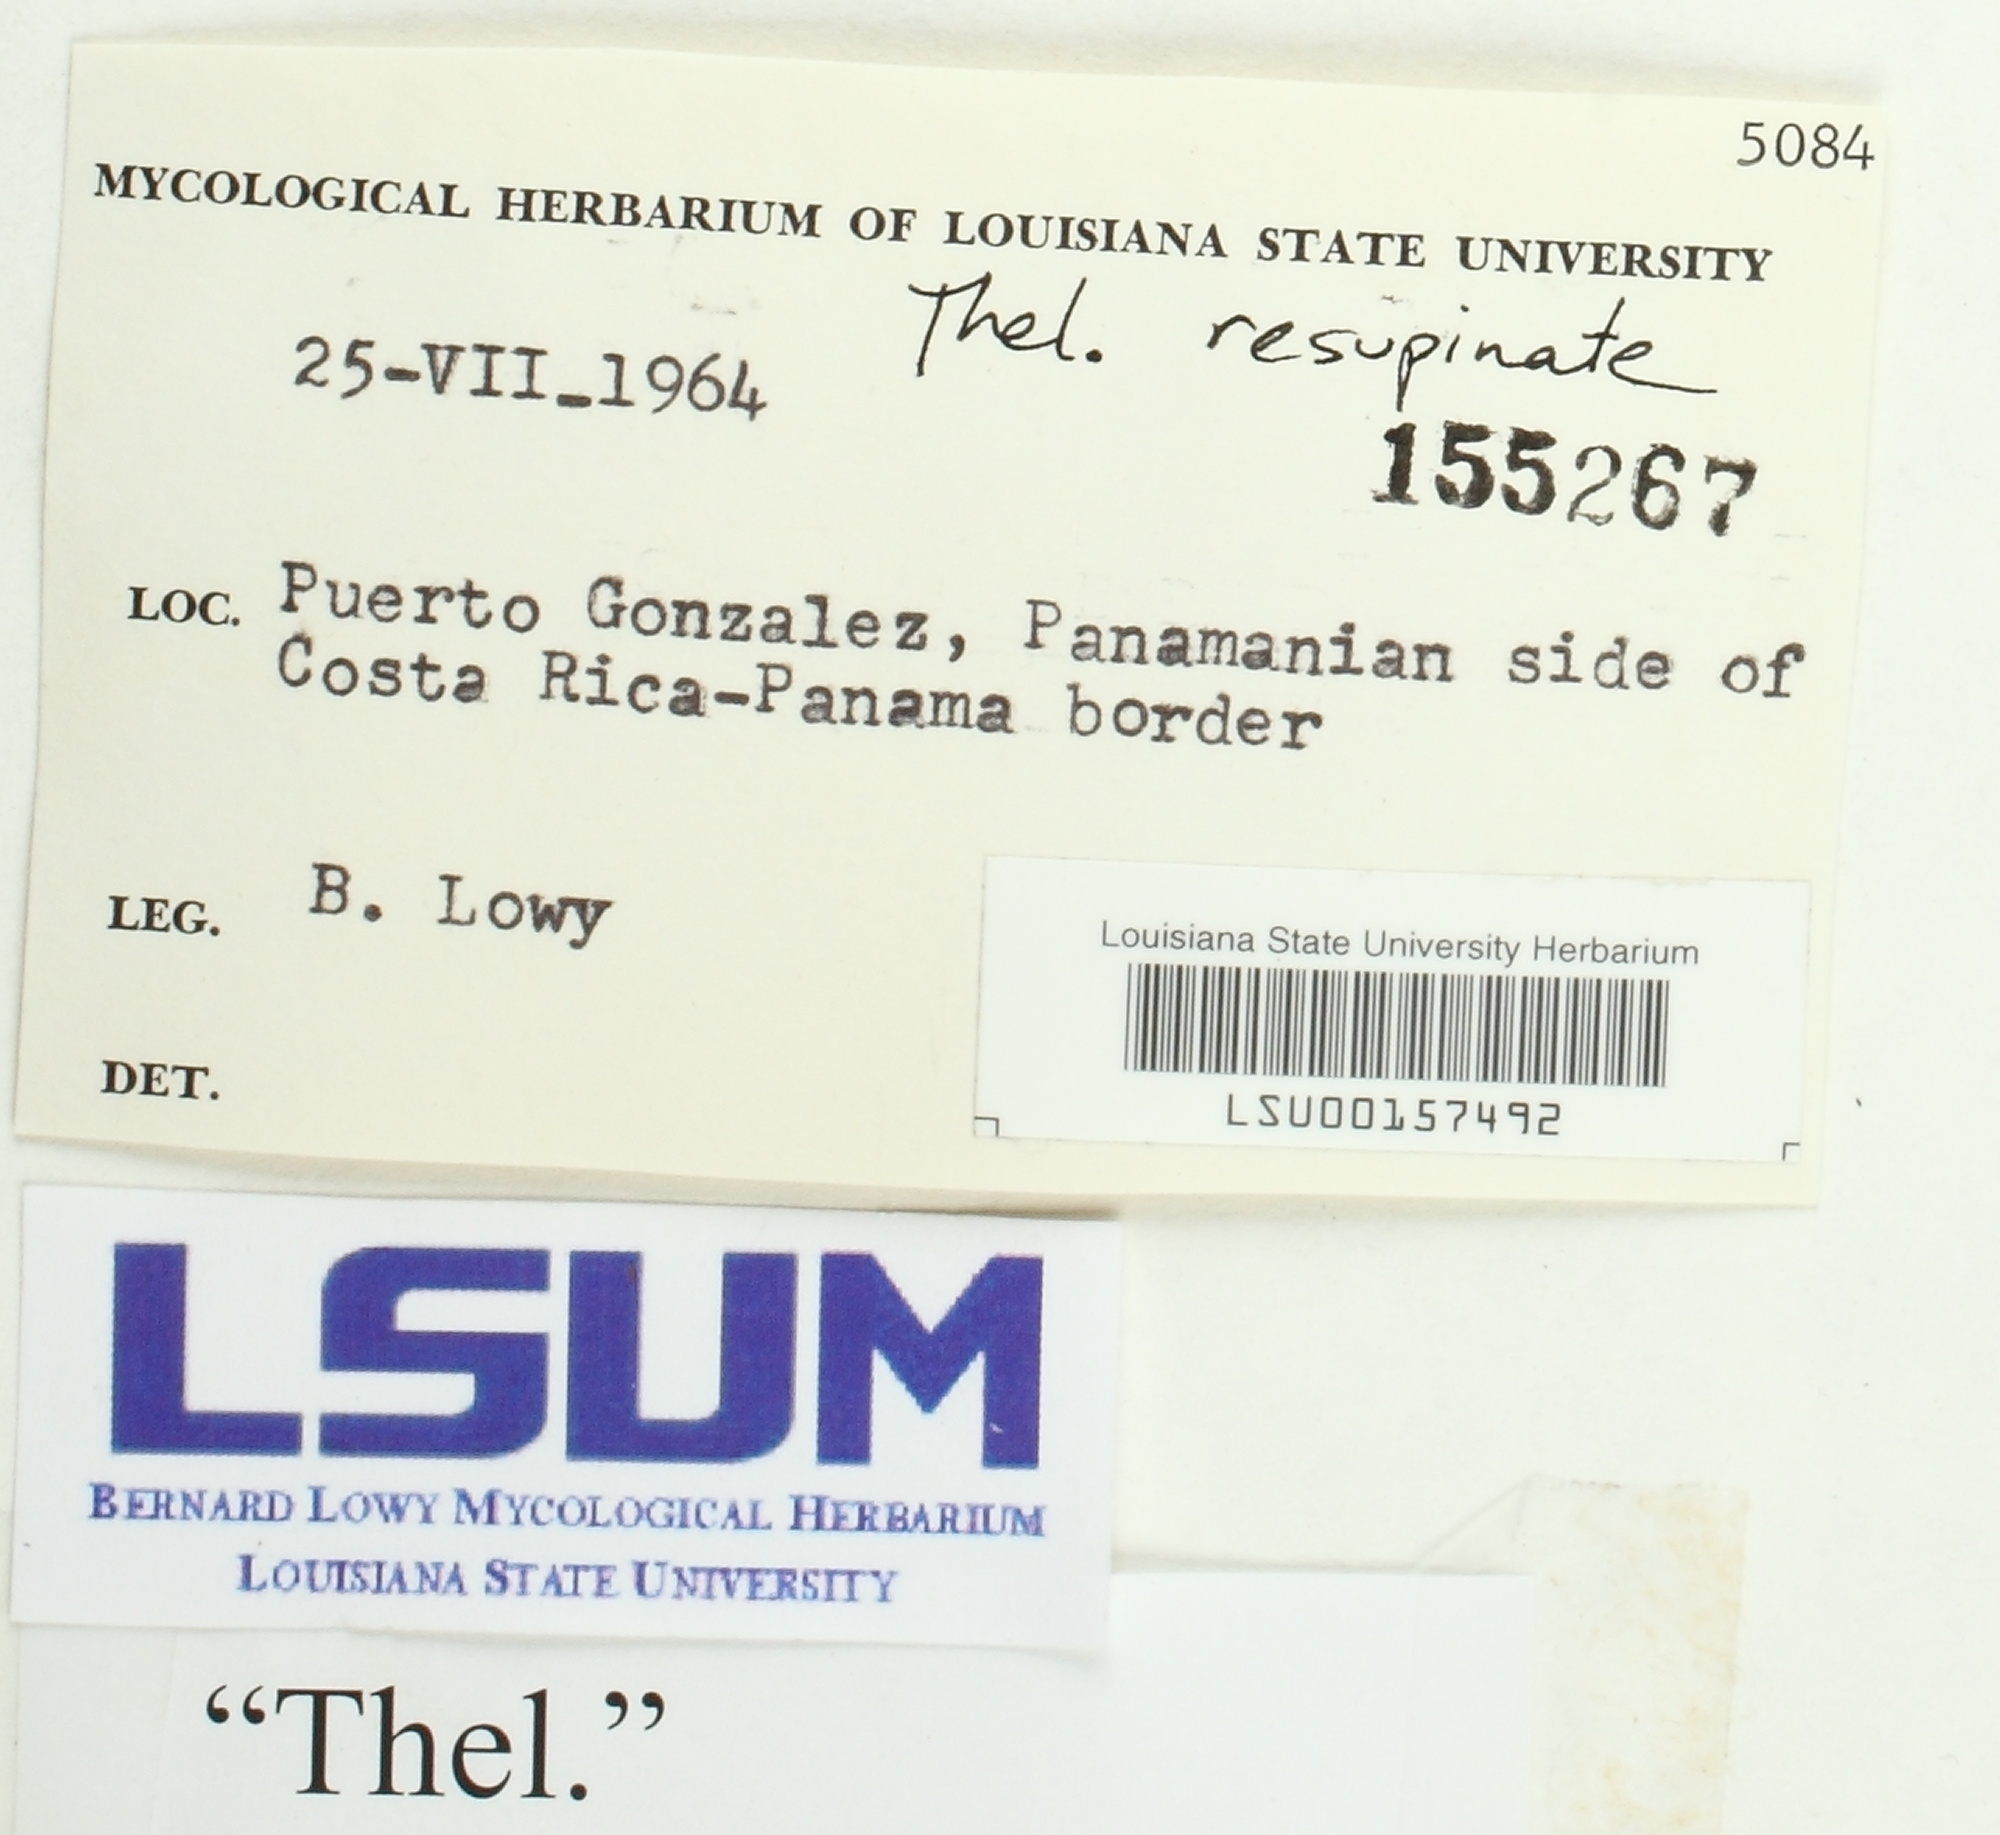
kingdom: Fungi
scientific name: Fungi
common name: Fungi
